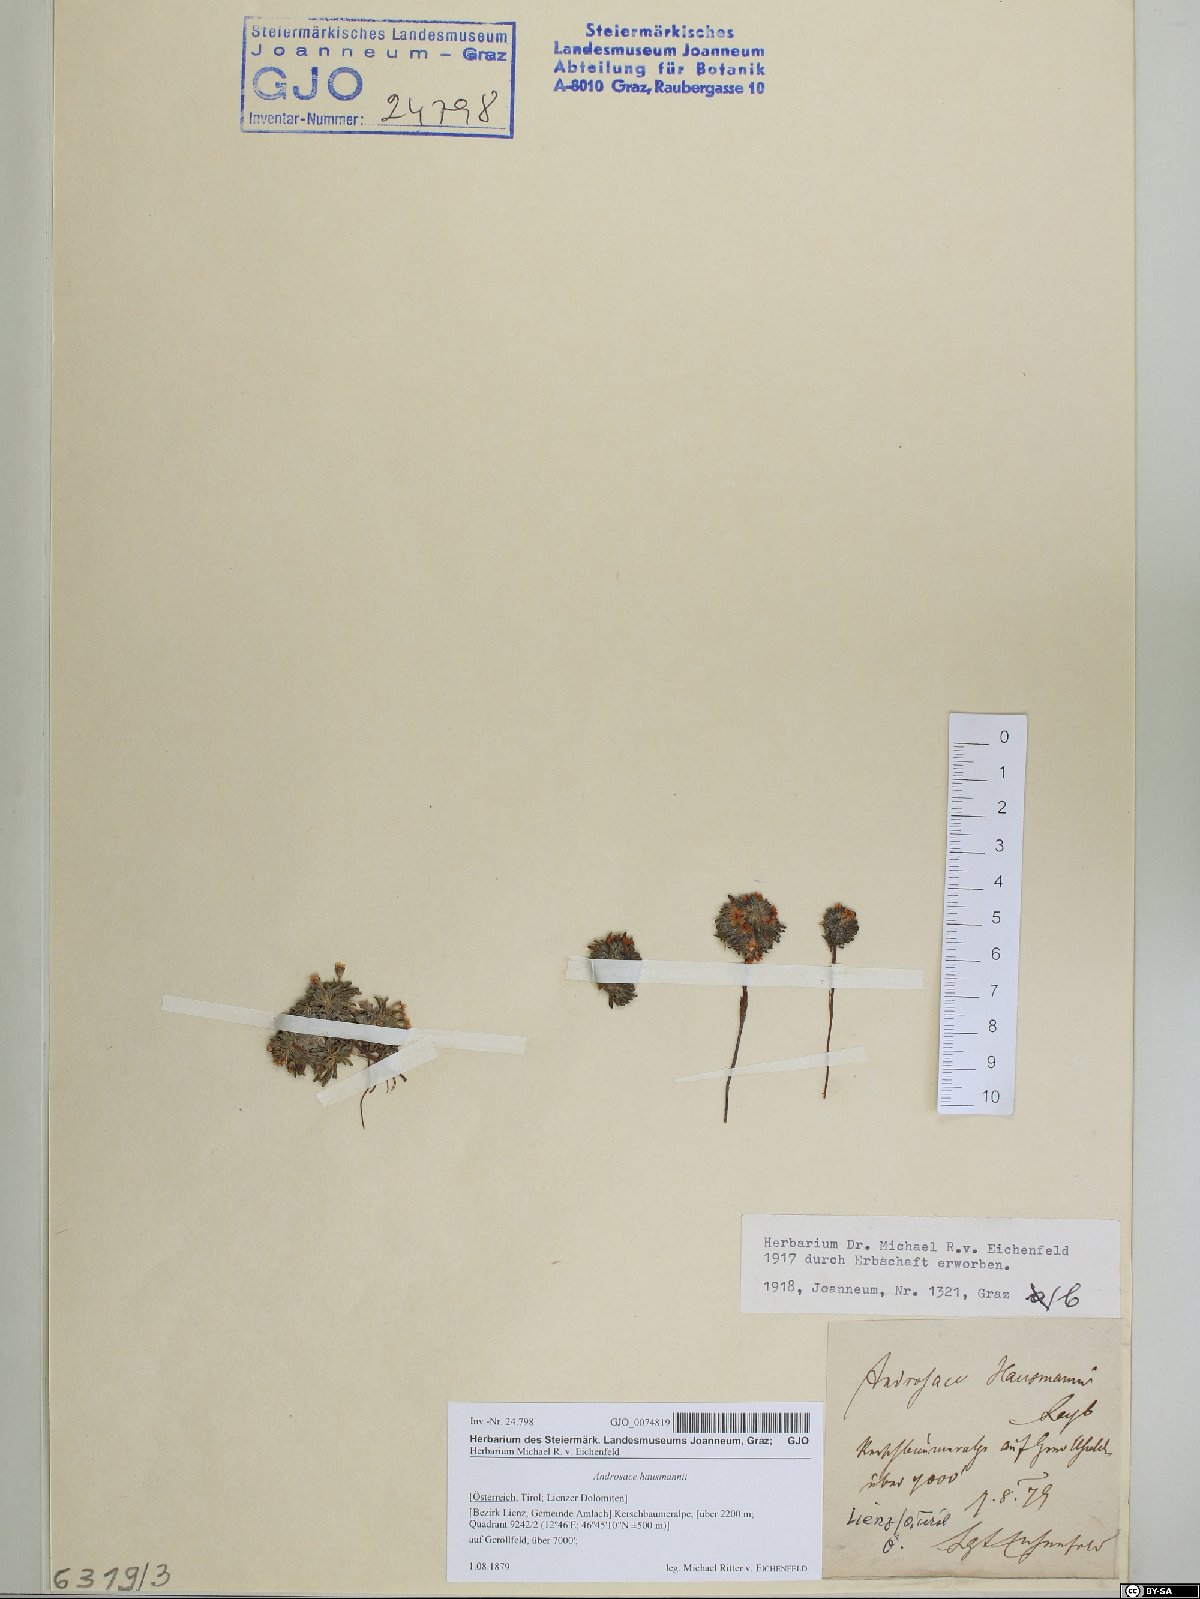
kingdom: Plantae
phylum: Tracheophyta
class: Magnoliopsida
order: Ericales
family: Primulaceae
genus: Androsace
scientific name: Androsace hausmannii
